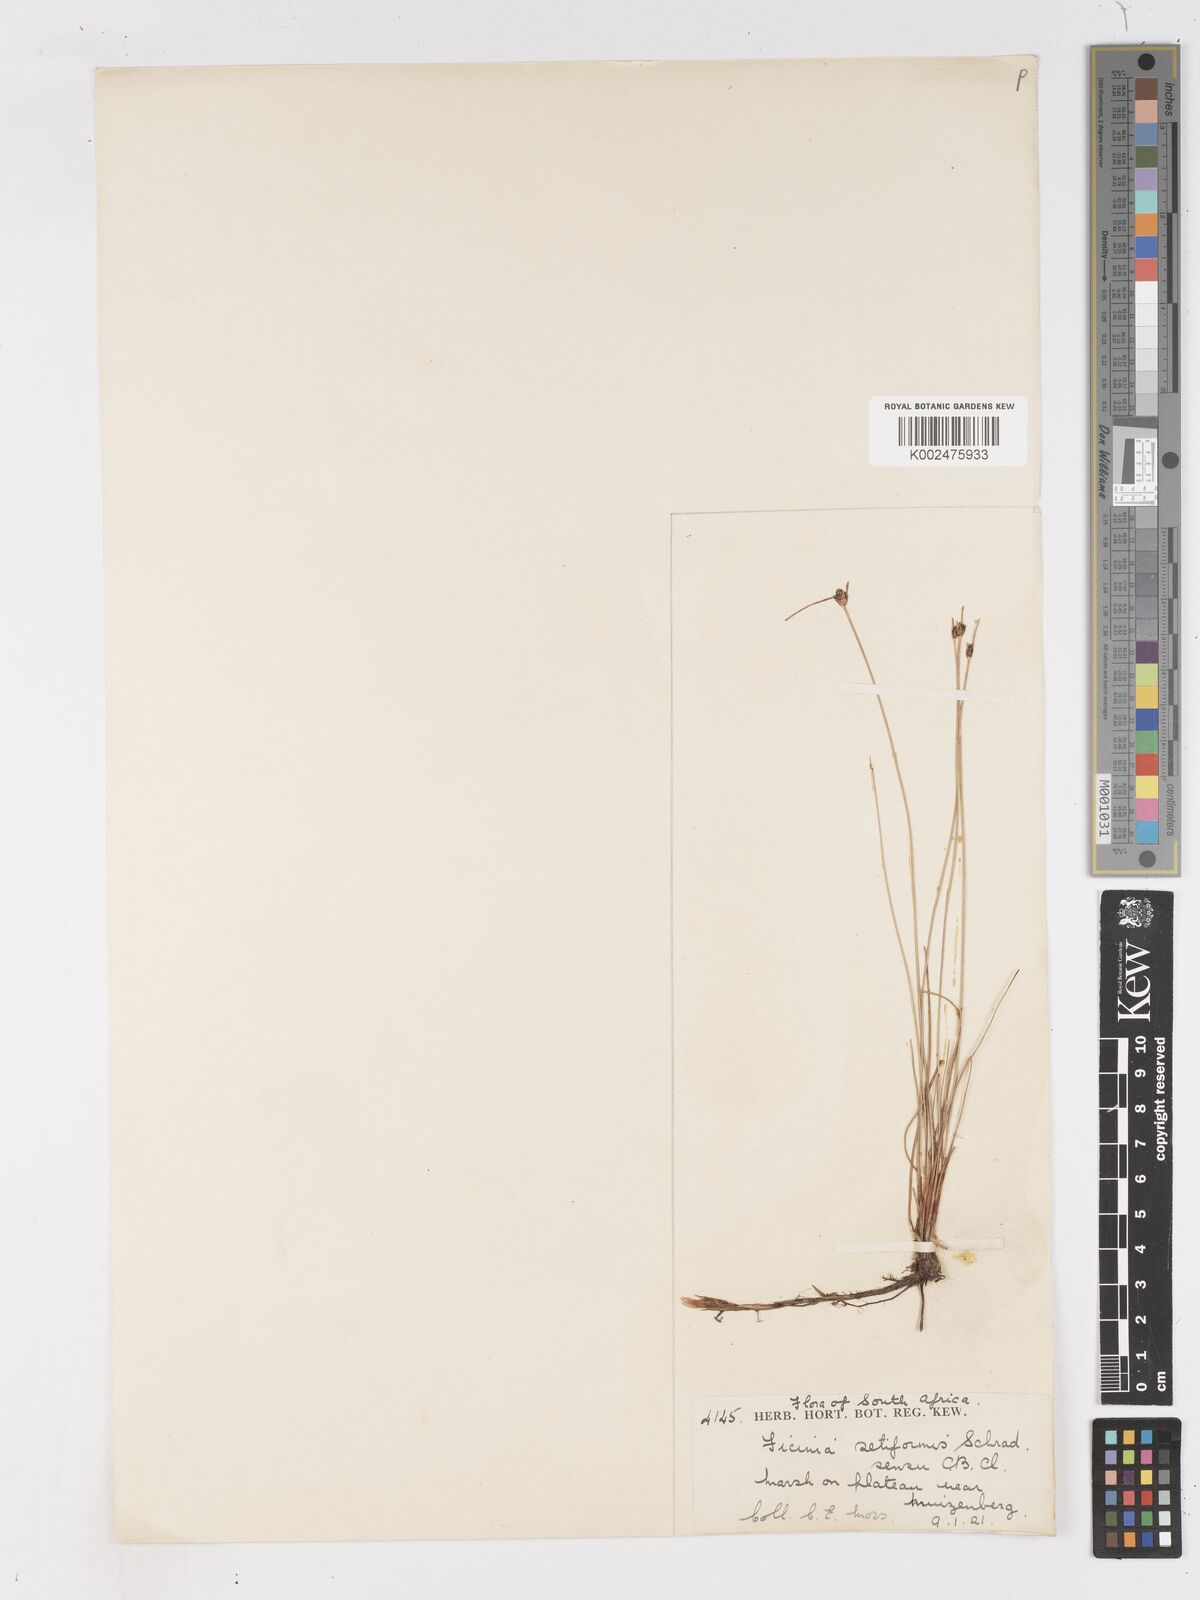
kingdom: Plantae
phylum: Tracheophyta
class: Liliopsida
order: Poales
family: Cyperaceae
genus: Ficinia
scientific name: Ficinia dunensis
